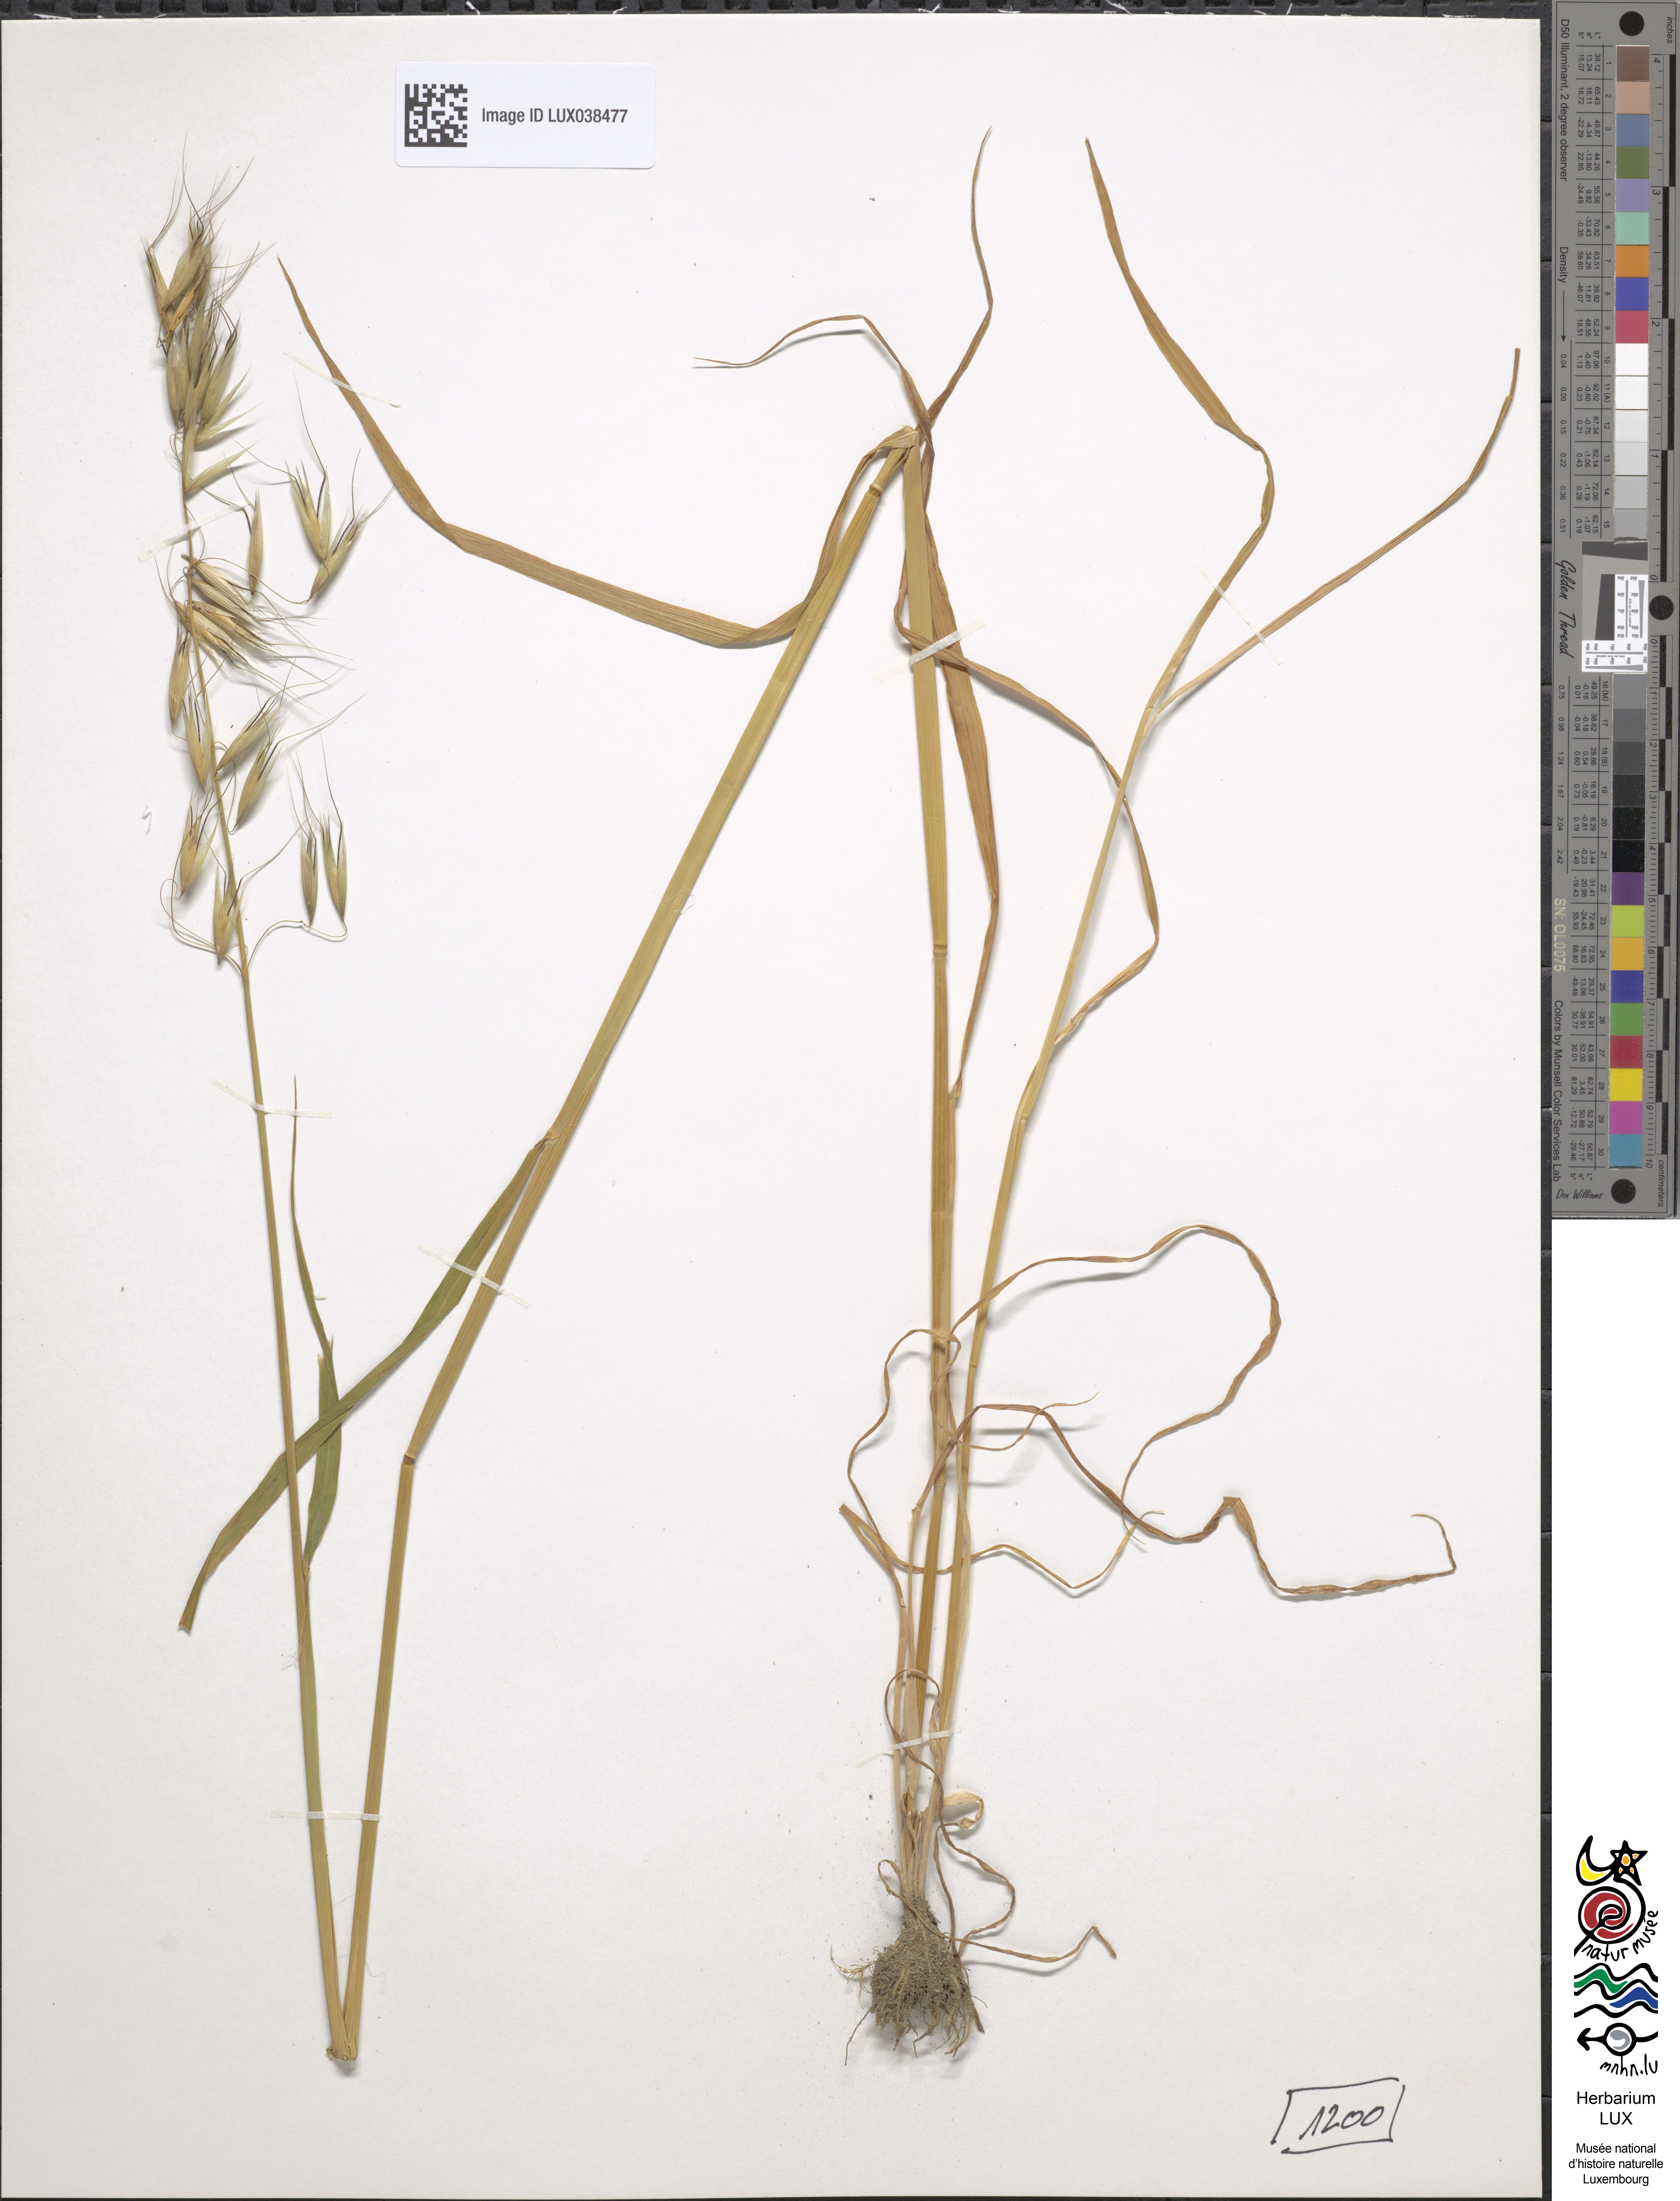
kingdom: Plantae
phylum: Tracheophyta
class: Liliopsida
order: Poales
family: Poaceae
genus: Avena
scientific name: Avena strigosa
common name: Bristle oat
